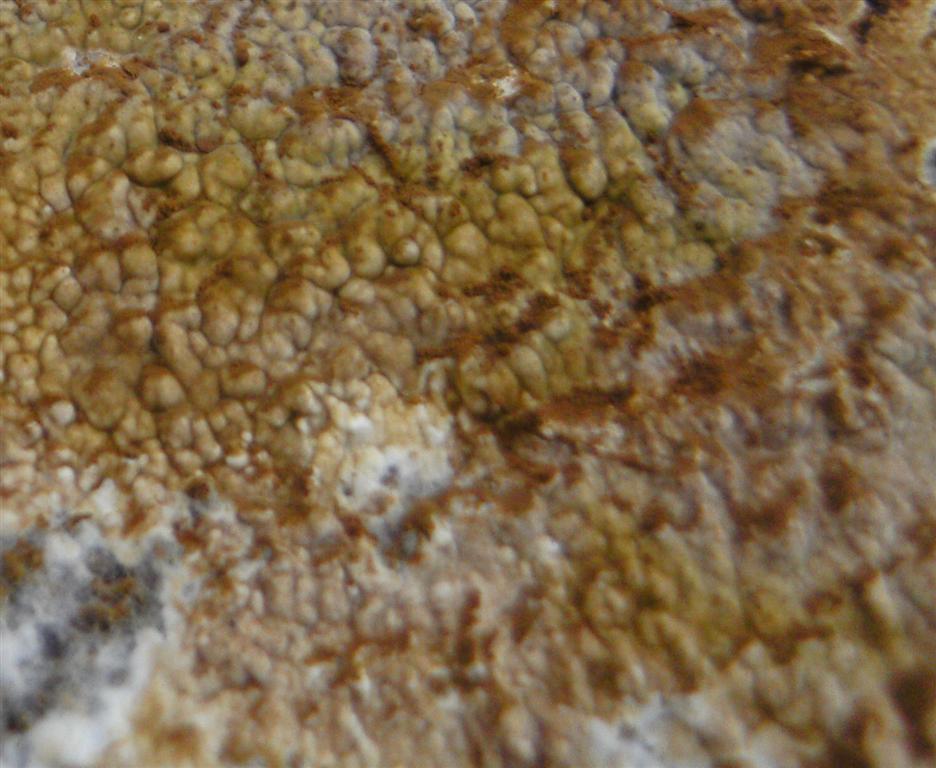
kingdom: Fungi
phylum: Basidiomycota
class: Agaricomycetes
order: Boletales
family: Coniophoraceae
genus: Coniophora
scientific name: Coniophora puteana
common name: gul tømmersvamp
